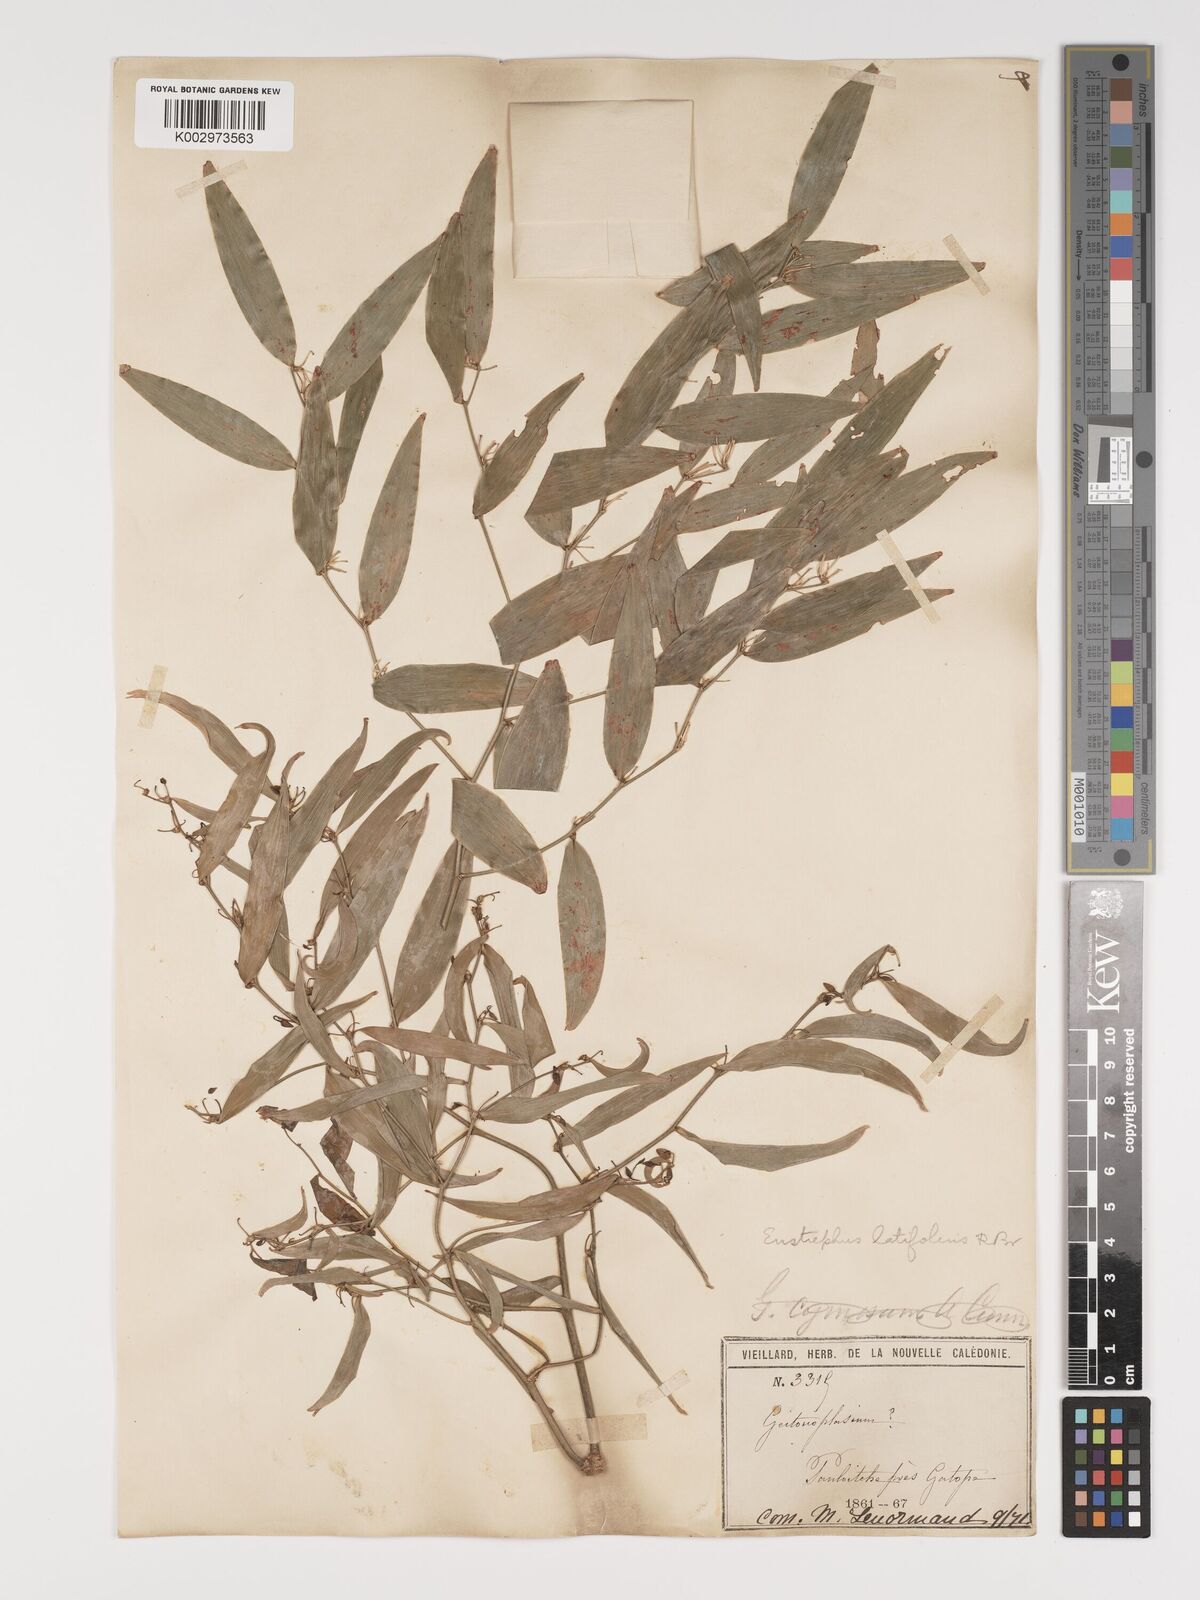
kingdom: Plantae
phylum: Tracheophyta
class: Liliopsida
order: Asparagales
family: Asparagaceae
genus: Eustrephus
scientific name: Eustrephus latifolius
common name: Orangevine
